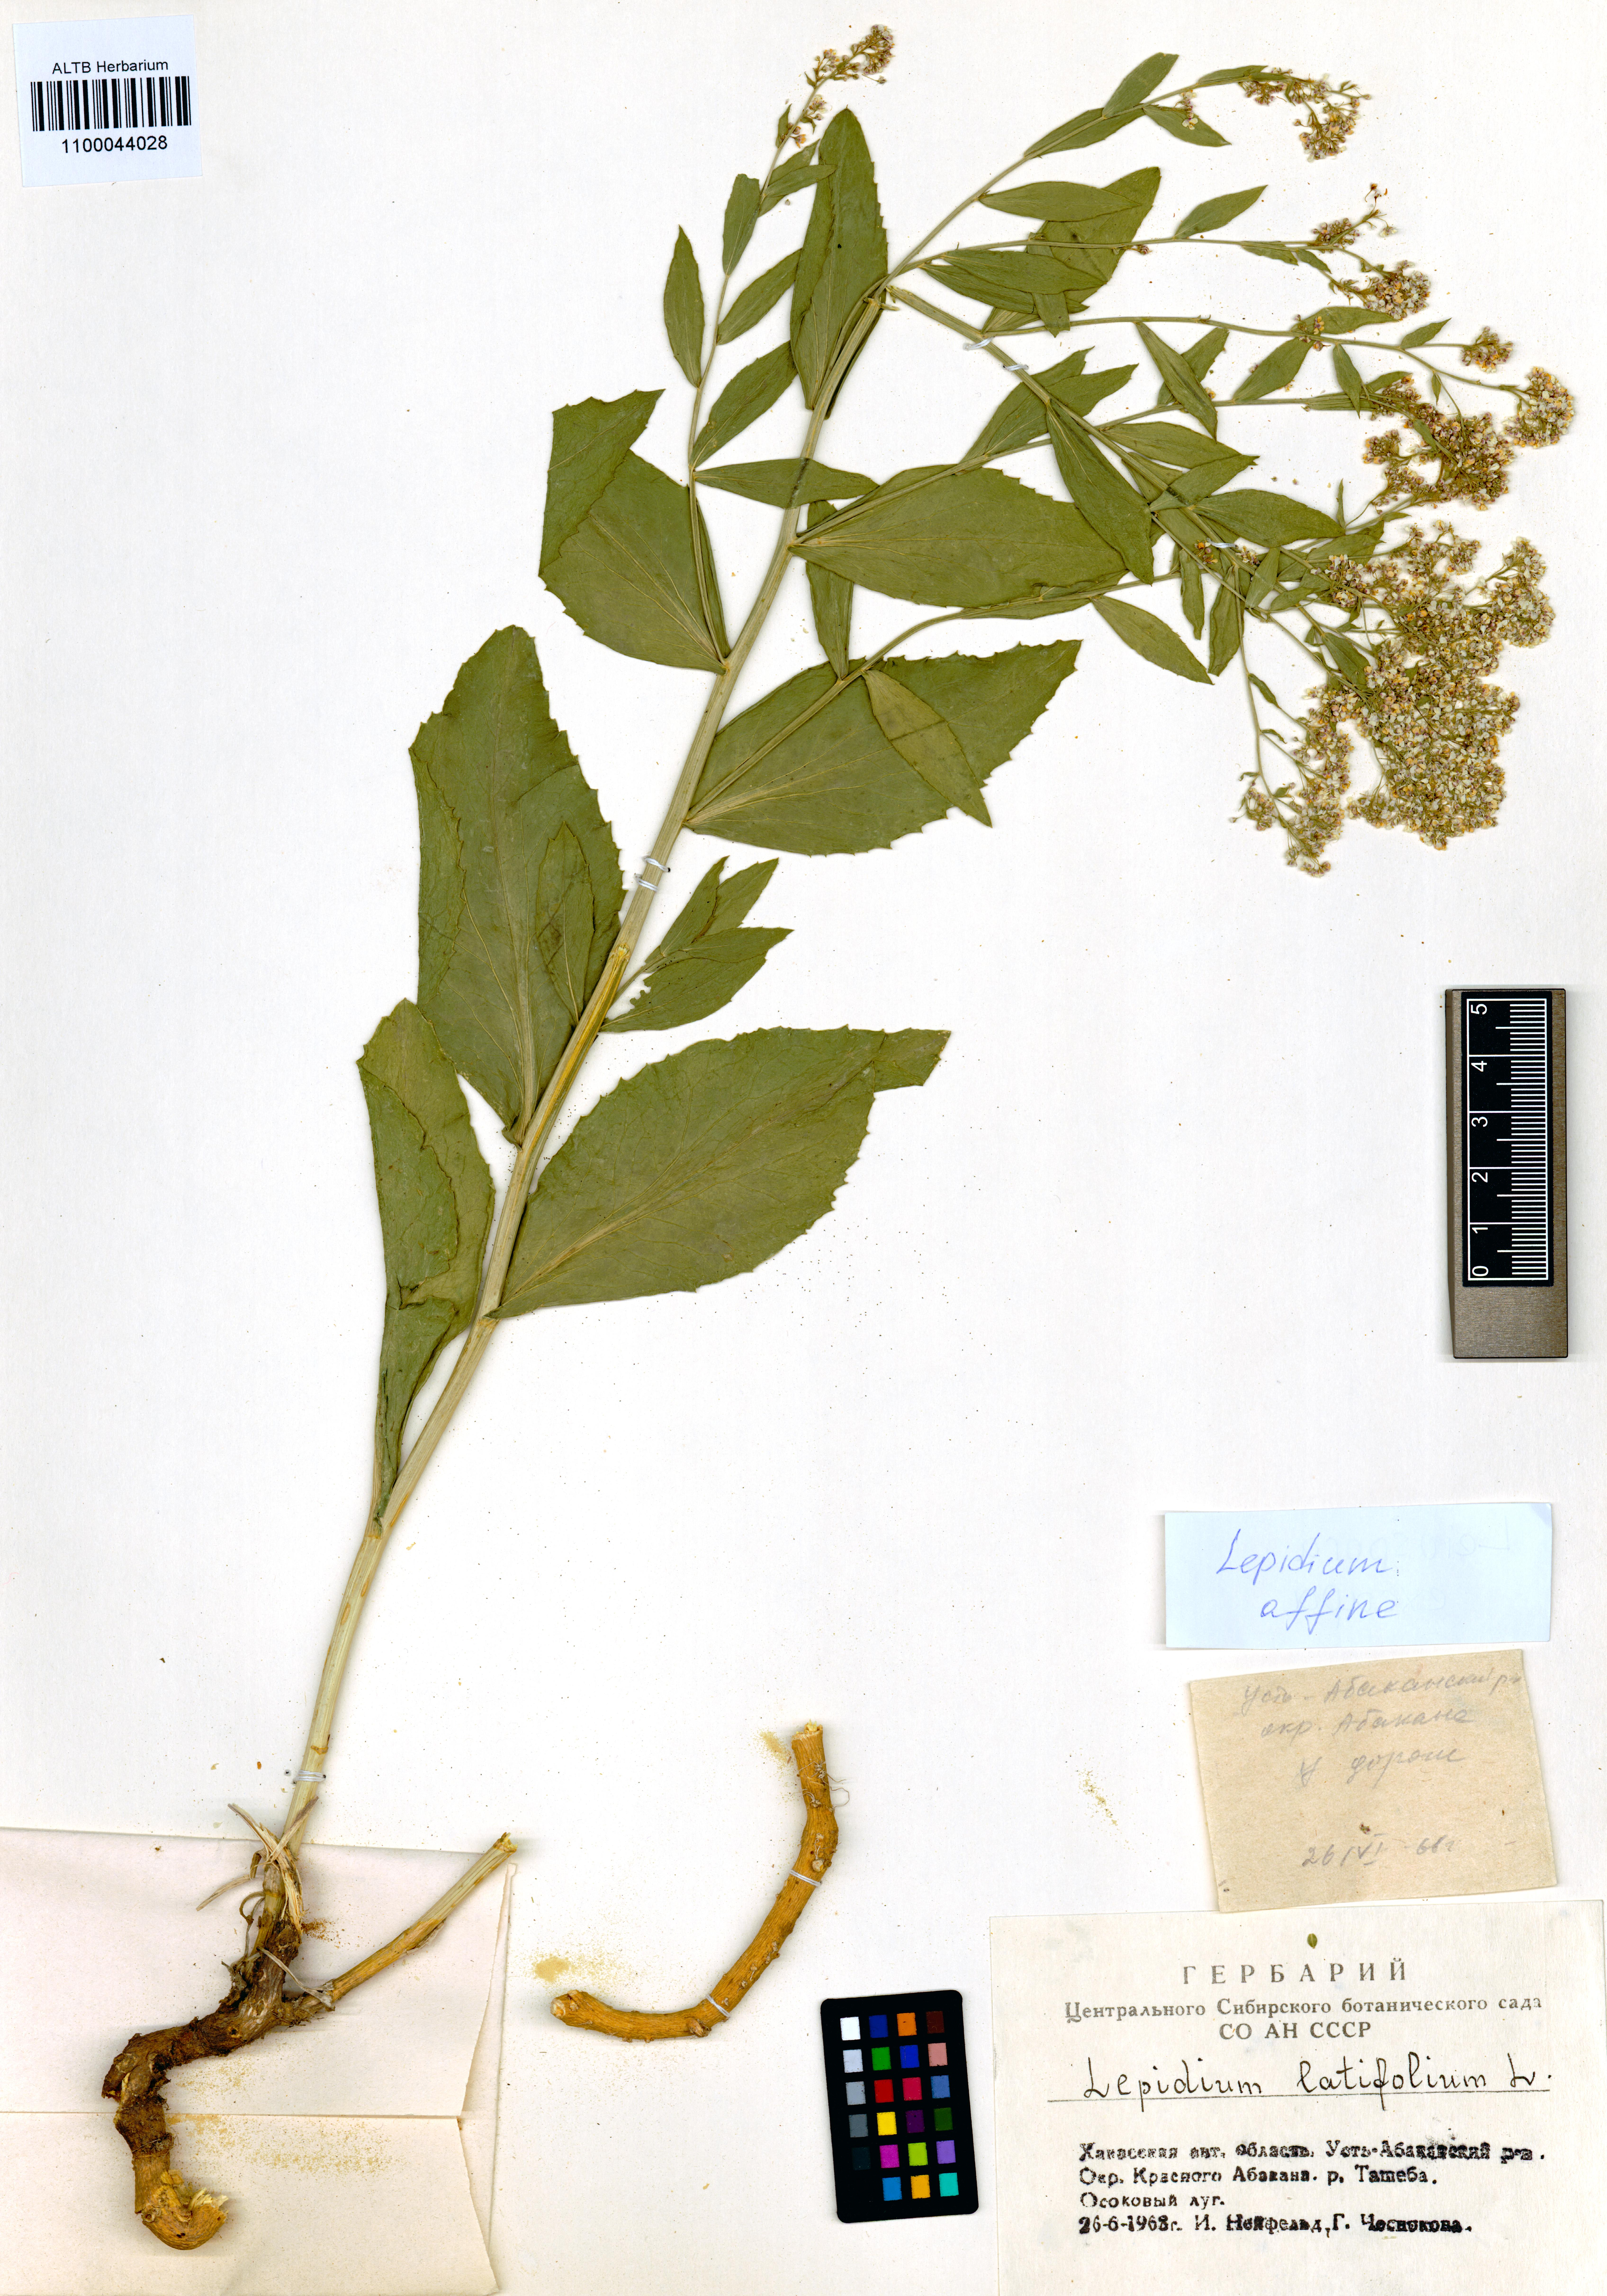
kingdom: Plantae
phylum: Tracheophyta
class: Magnoliopsida
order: Brassicales
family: Brassicaceae
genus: Lepidium
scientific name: Lepidium latifolium
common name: Dittander
